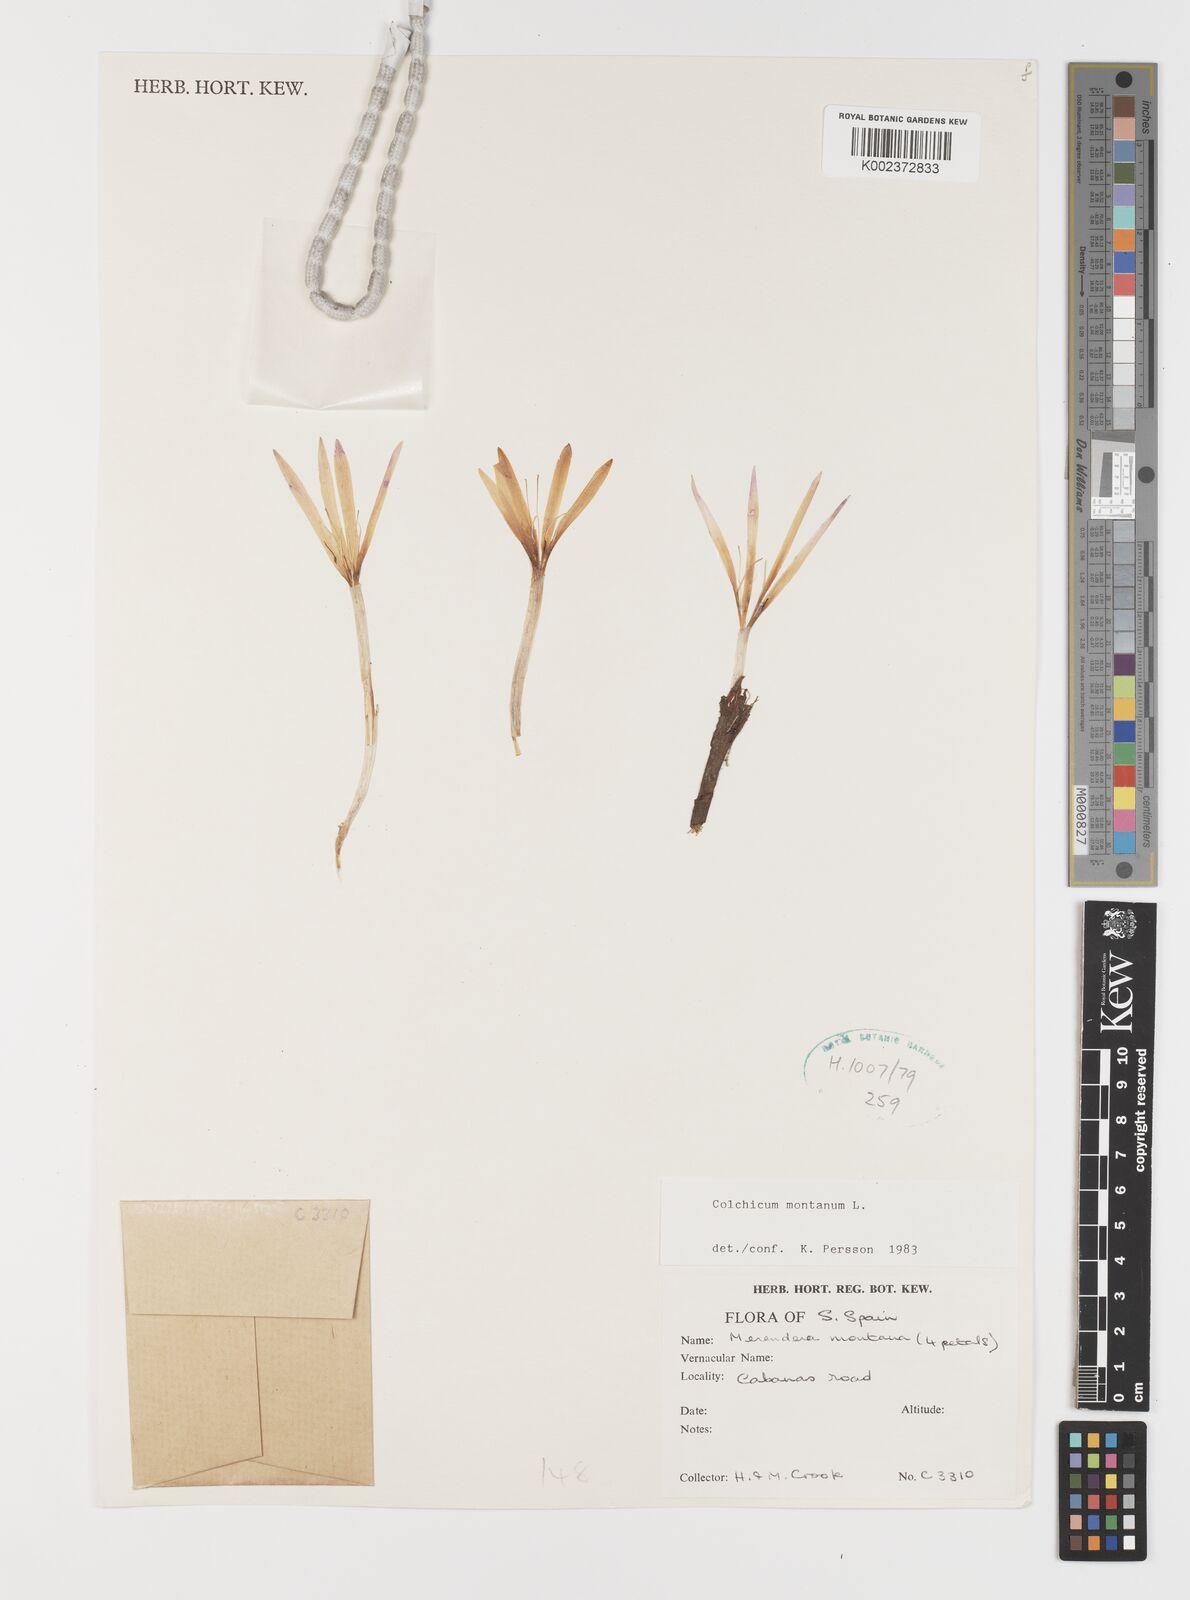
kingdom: Plantae
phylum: Tracheophyta
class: Liliopsida
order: Liliales
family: Colchicaceae
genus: Colchicum
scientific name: Colchicum montanum
